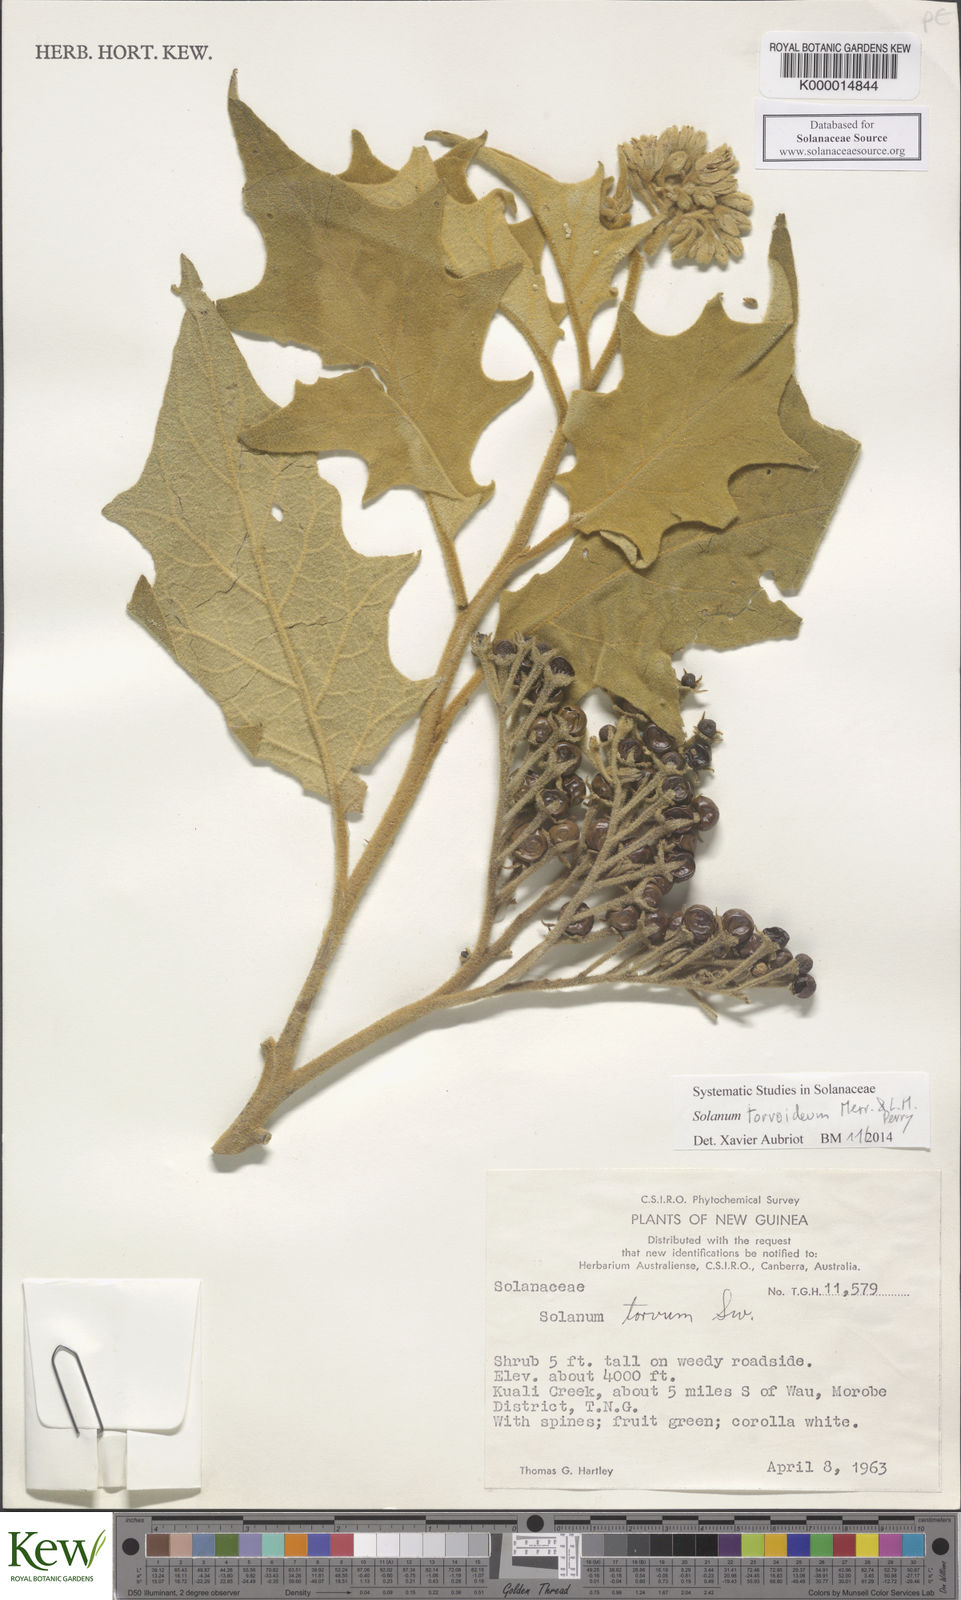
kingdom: Plantae
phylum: Tracheophyta
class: Magnoliopsida
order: Solanales
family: Solanaceae
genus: Solanum
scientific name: Solanum torvoideum
